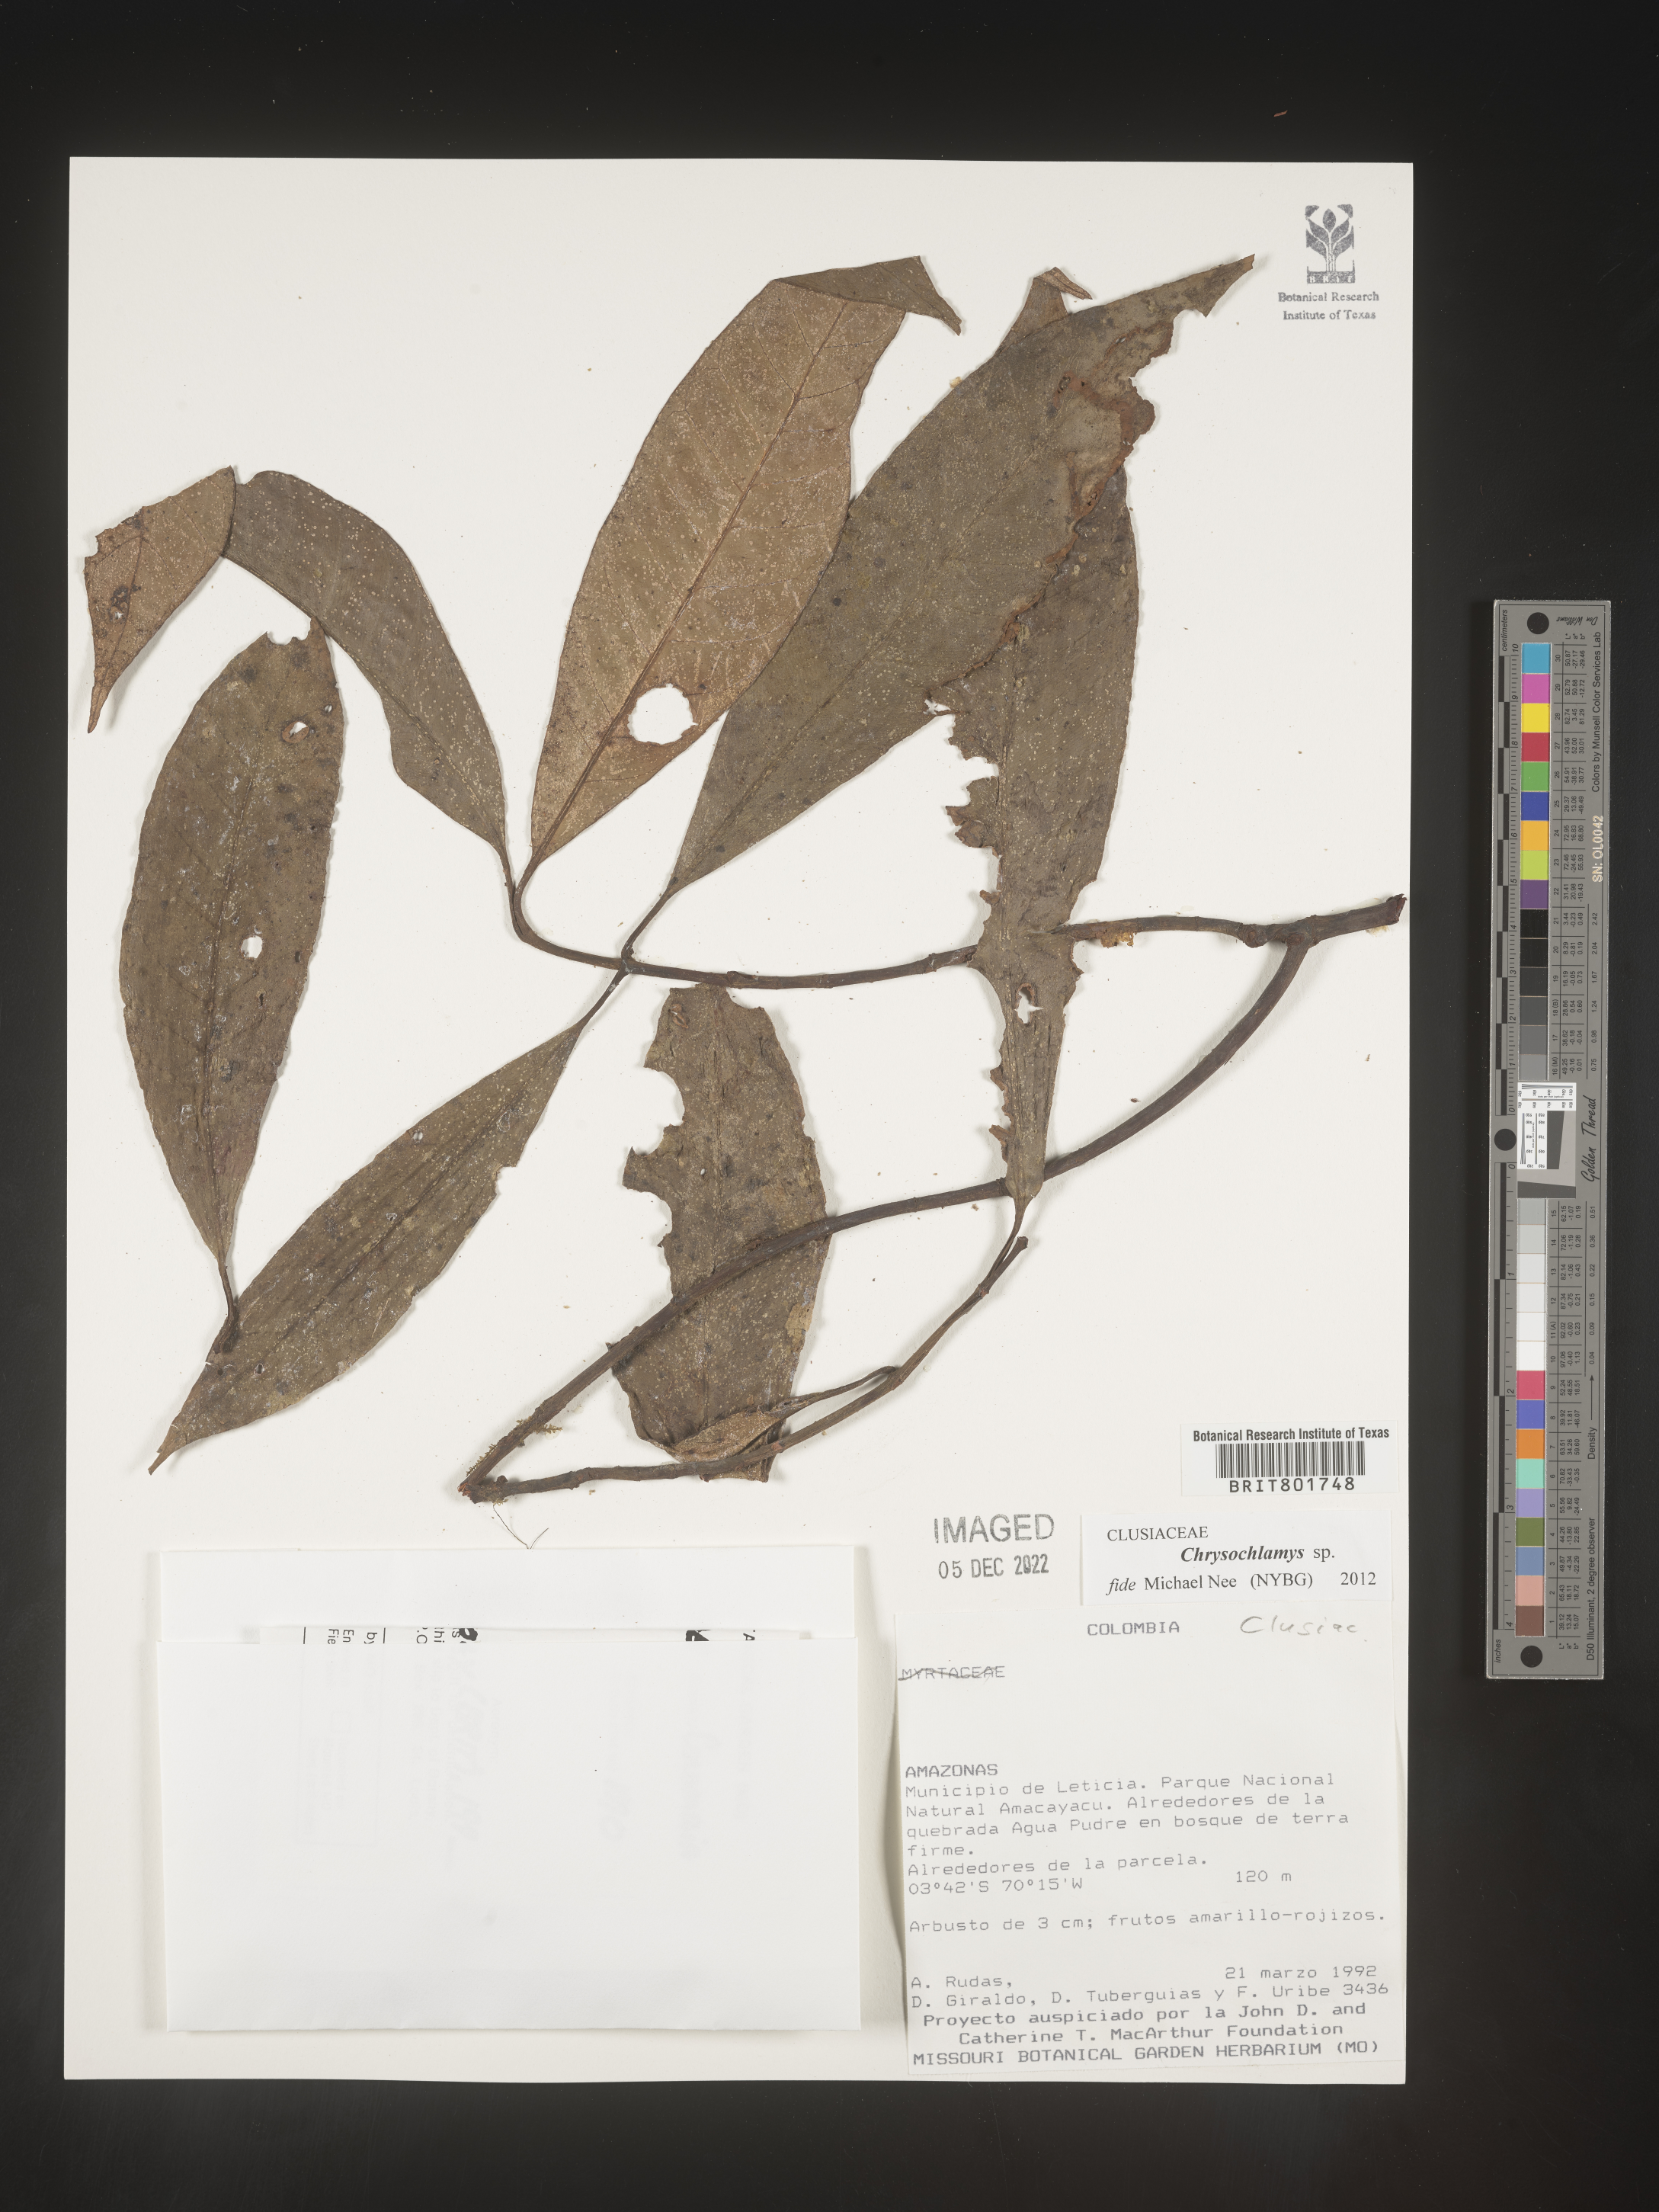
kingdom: Plantae
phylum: Tracheophyta
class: Magnoliopsida
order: Malpighiales
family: Clusiaceae
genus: Chrysochlamys
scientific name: Chrysochlamys
